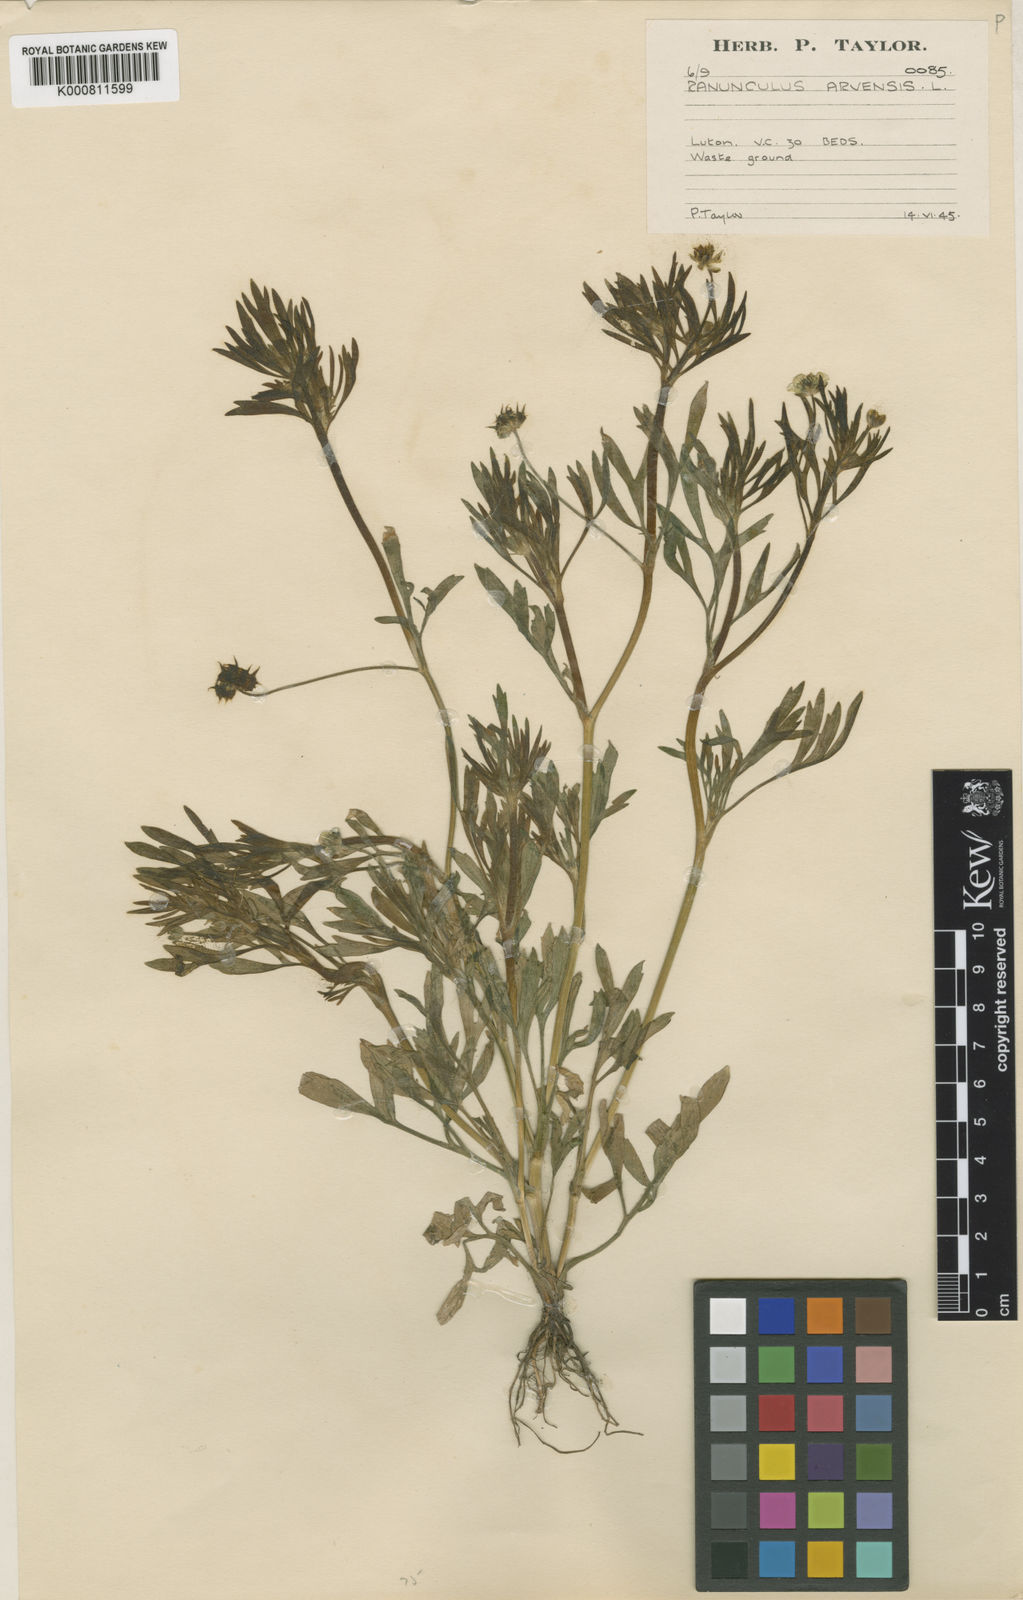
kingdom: Plantae
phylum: Tracheophyta
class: Magnoliopsida
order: Ranunculales
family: Ranunculaceae
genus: Ranunculus
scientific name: Ranunculus arvensis
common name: Corn buttercup
